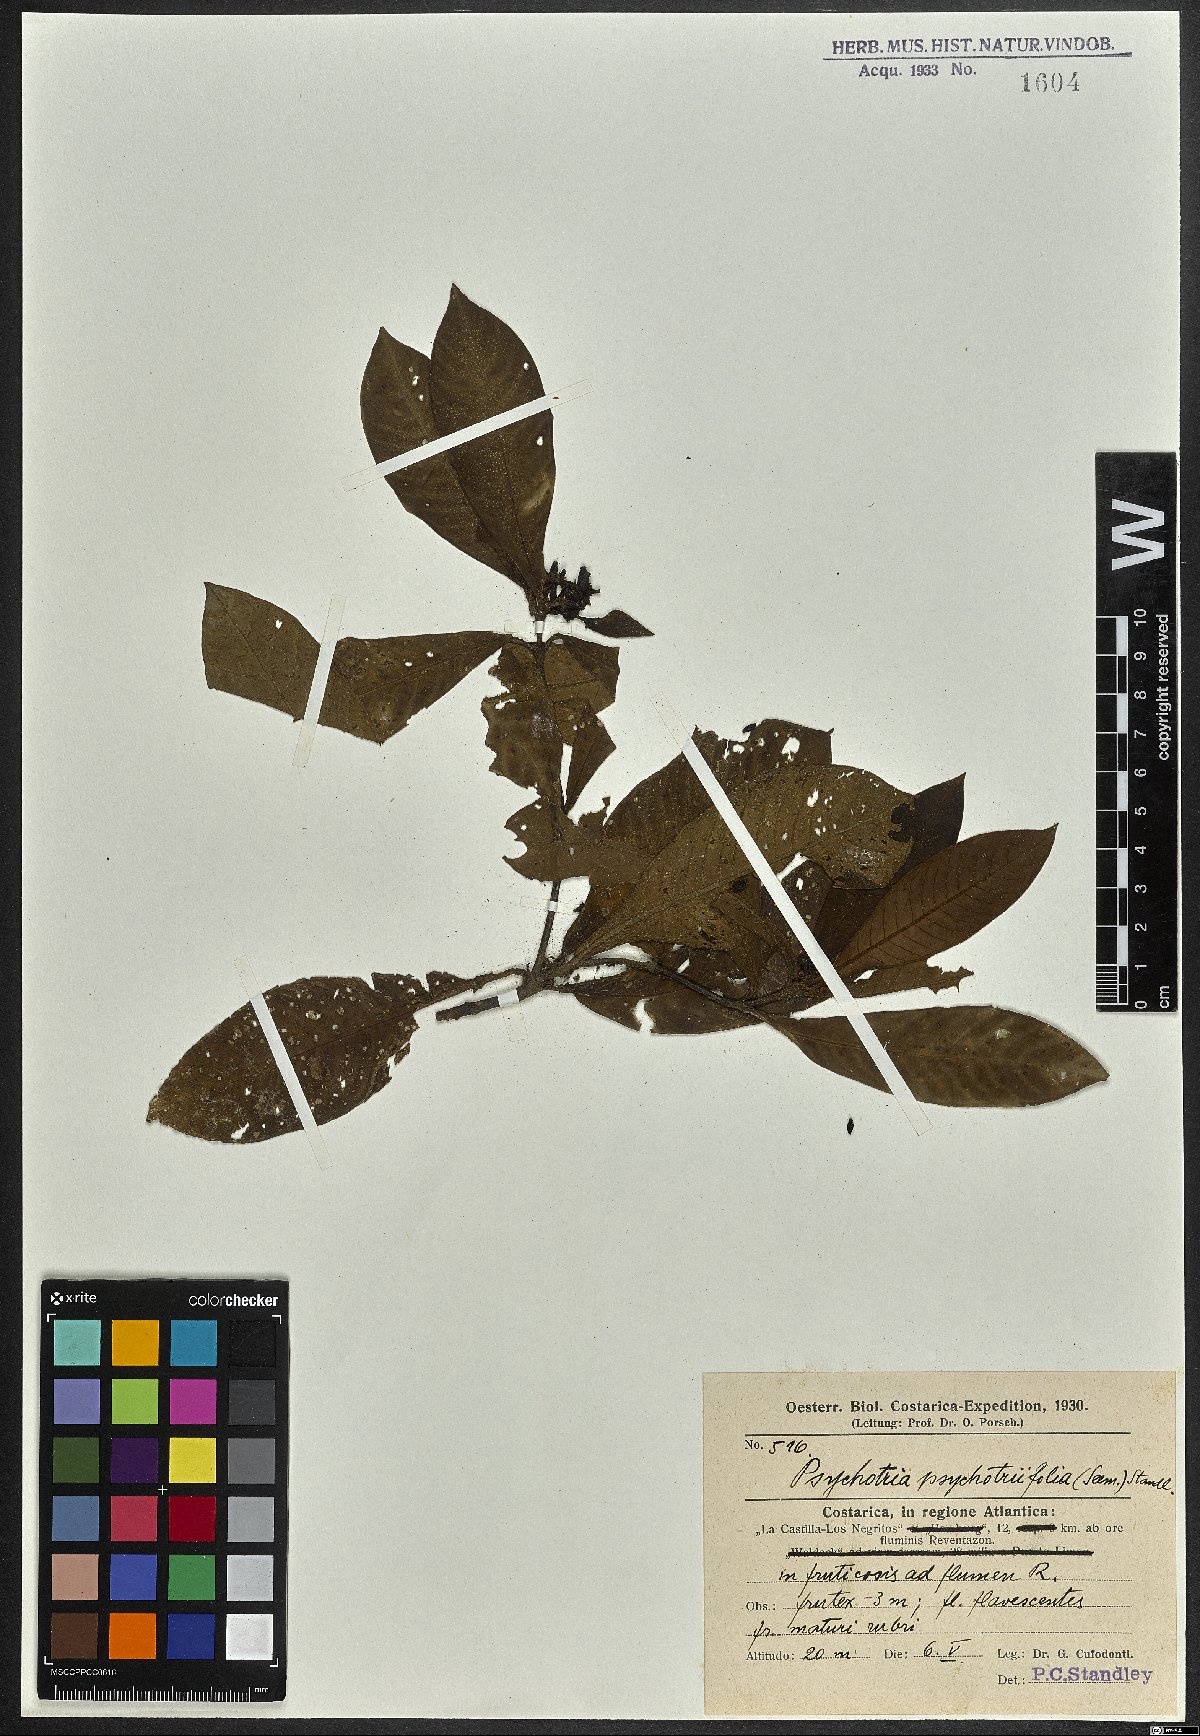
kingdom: Plantae
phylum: Tracheophyta
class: Magnoliopsida
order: Gentianales
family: Rubiaceae
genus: Psychotria
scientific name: Psychotria psychotriifolia
